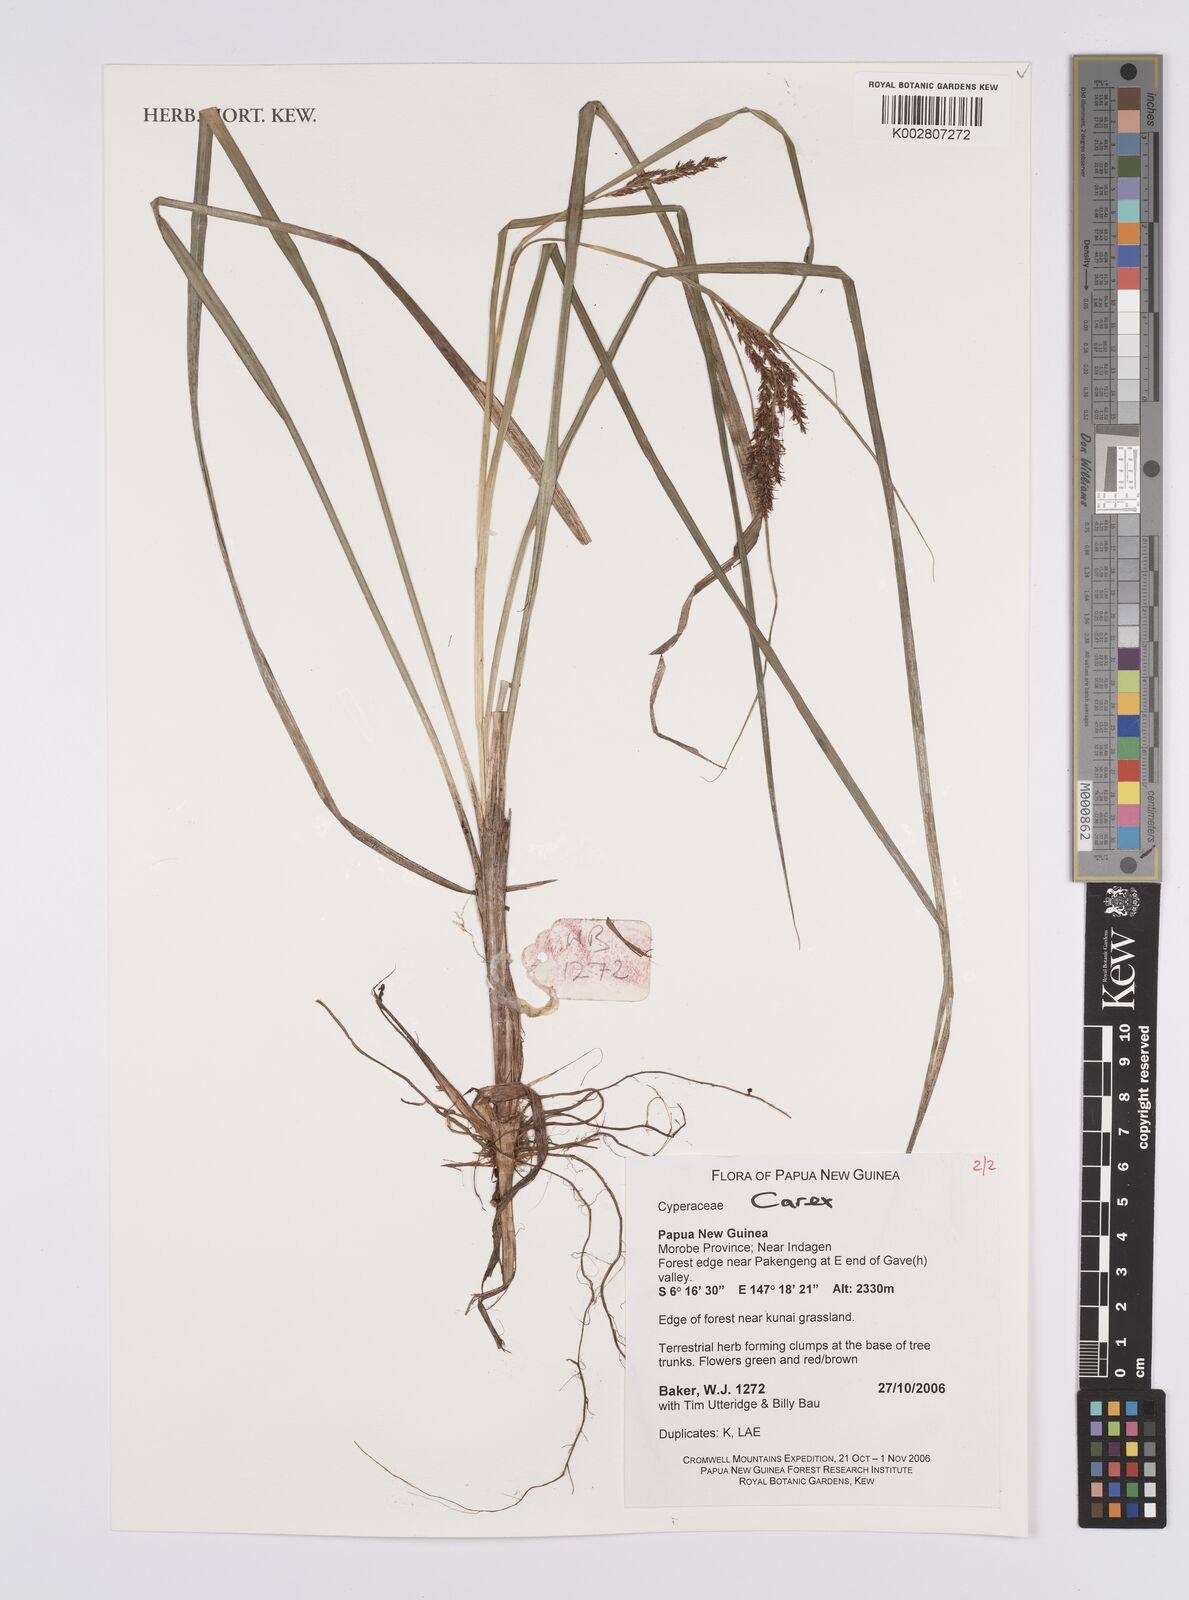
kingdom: Plantae
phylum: Tracheophyta
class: Liliopsida
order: Poales
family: Cyperaceae
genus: Carex
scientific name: Carex
